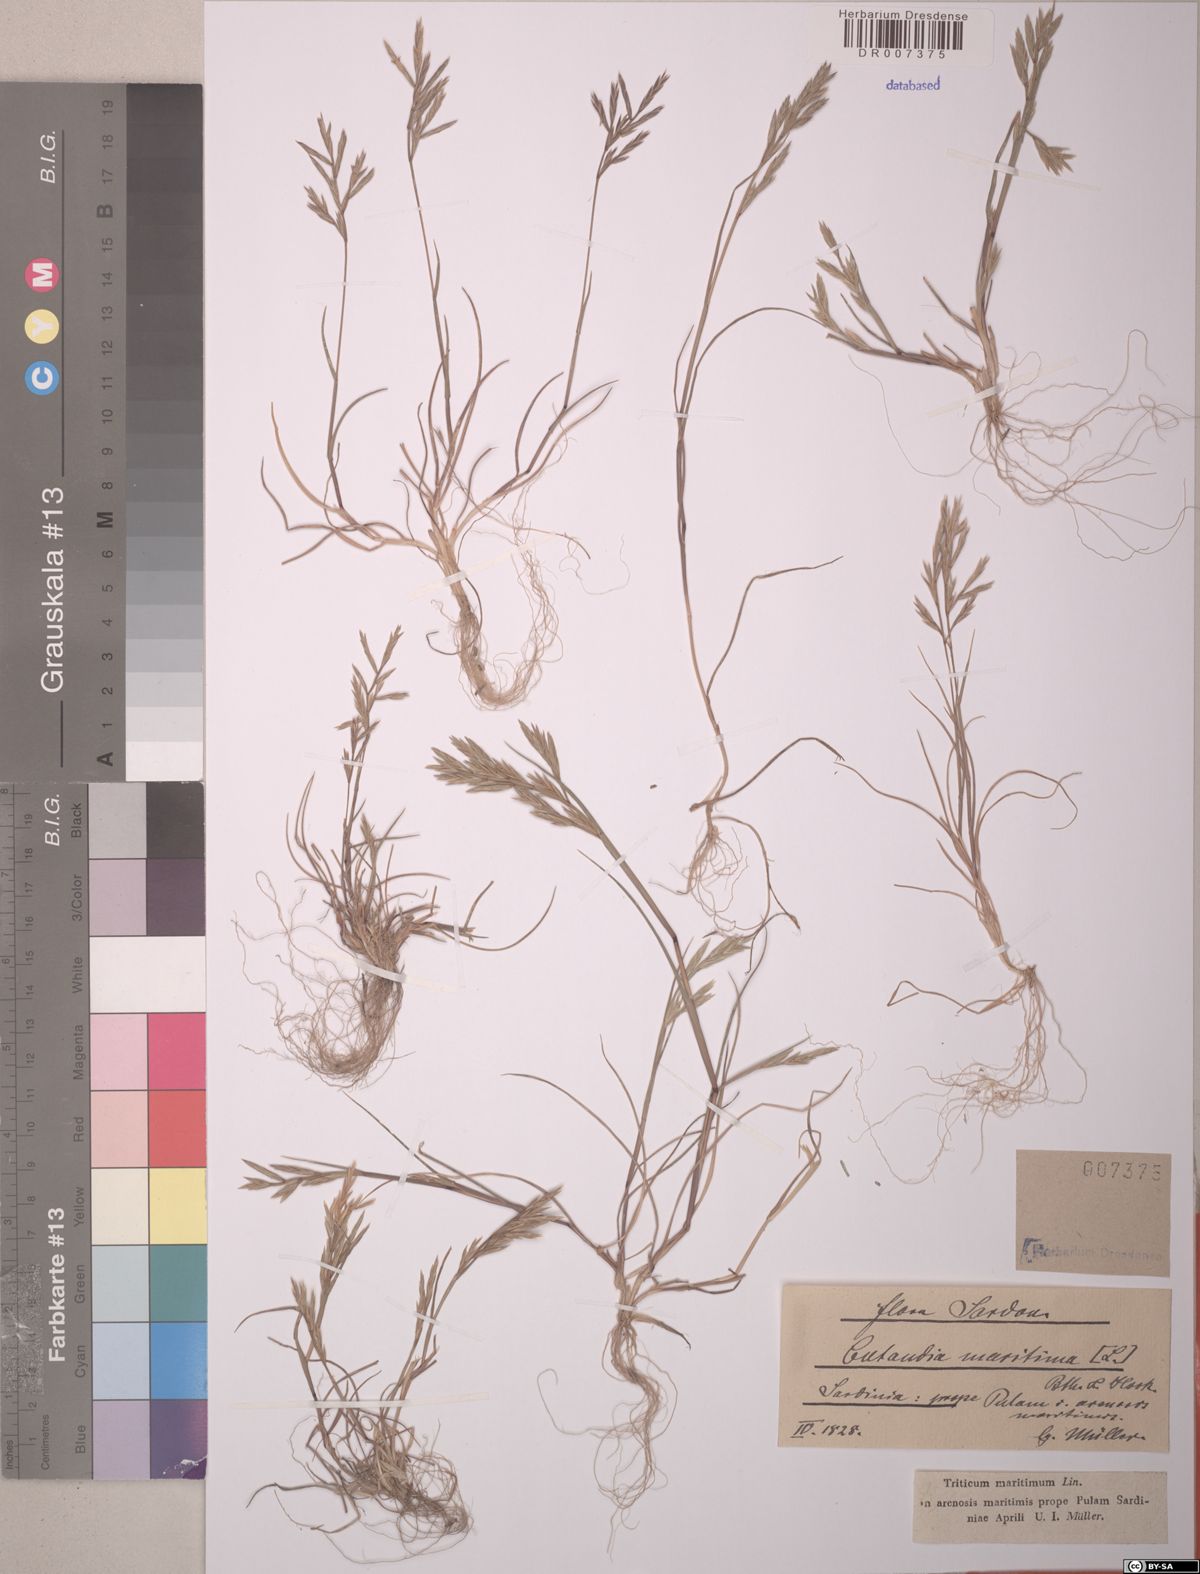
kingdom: Plantae
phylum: Tracheophyta
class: Liliopsida
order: Poales
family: Poaceae
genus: Cutandia
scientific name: Cutandia maritima
